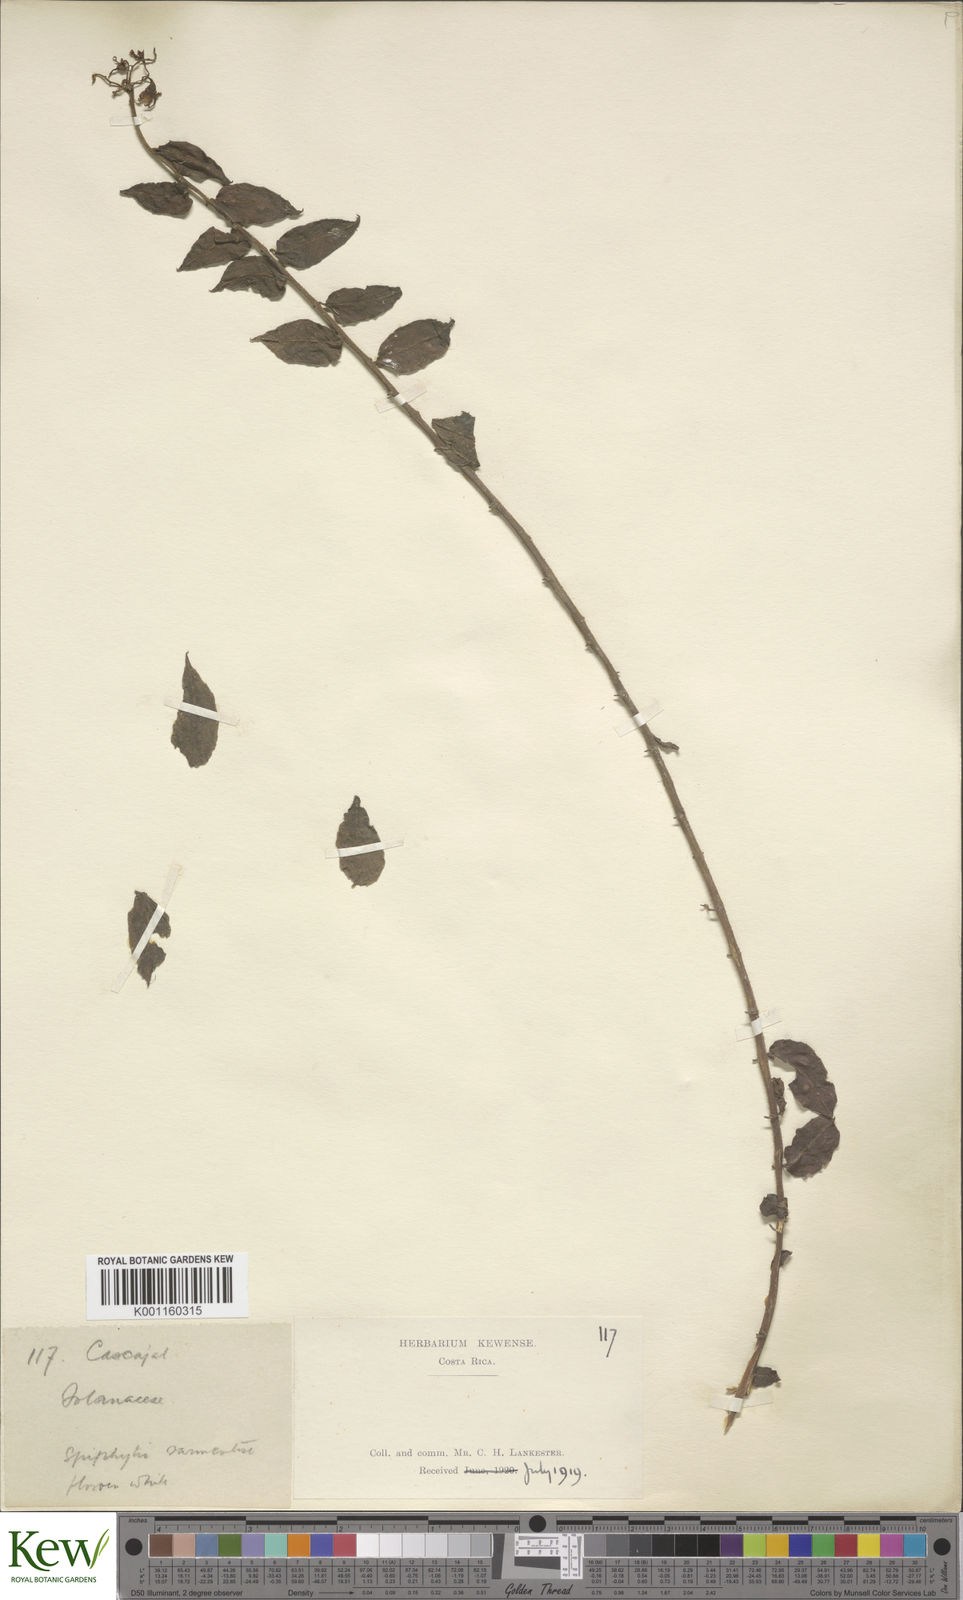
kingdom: Plantae
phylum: Tracheophyta
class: Magnoliopsida
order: Solanales
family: Solanaceae
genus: Solanum
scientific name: Solanum evolvulifolium
